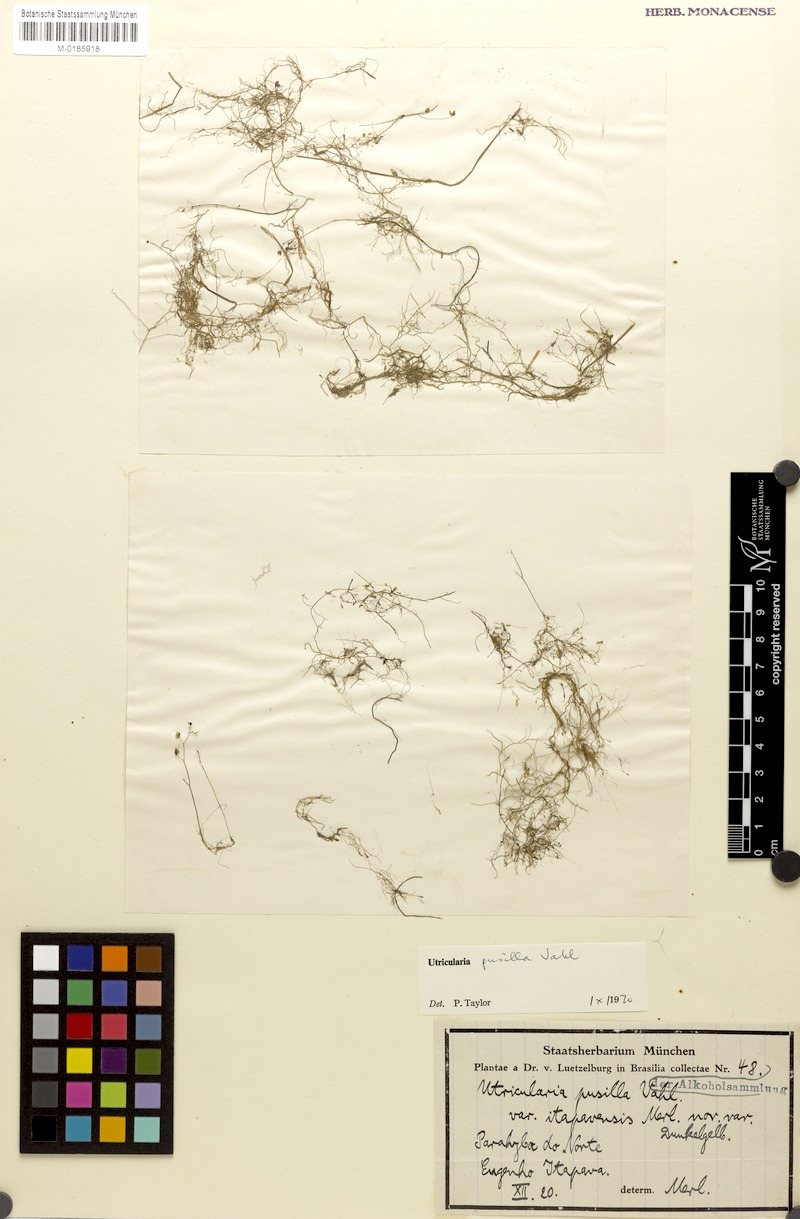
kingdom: Plantae
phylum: Tracheophyta
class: Magnoliopsida
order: Lamiales
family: Lentibulariaceae
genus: Utricularia
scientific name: Utricularia pusilla
